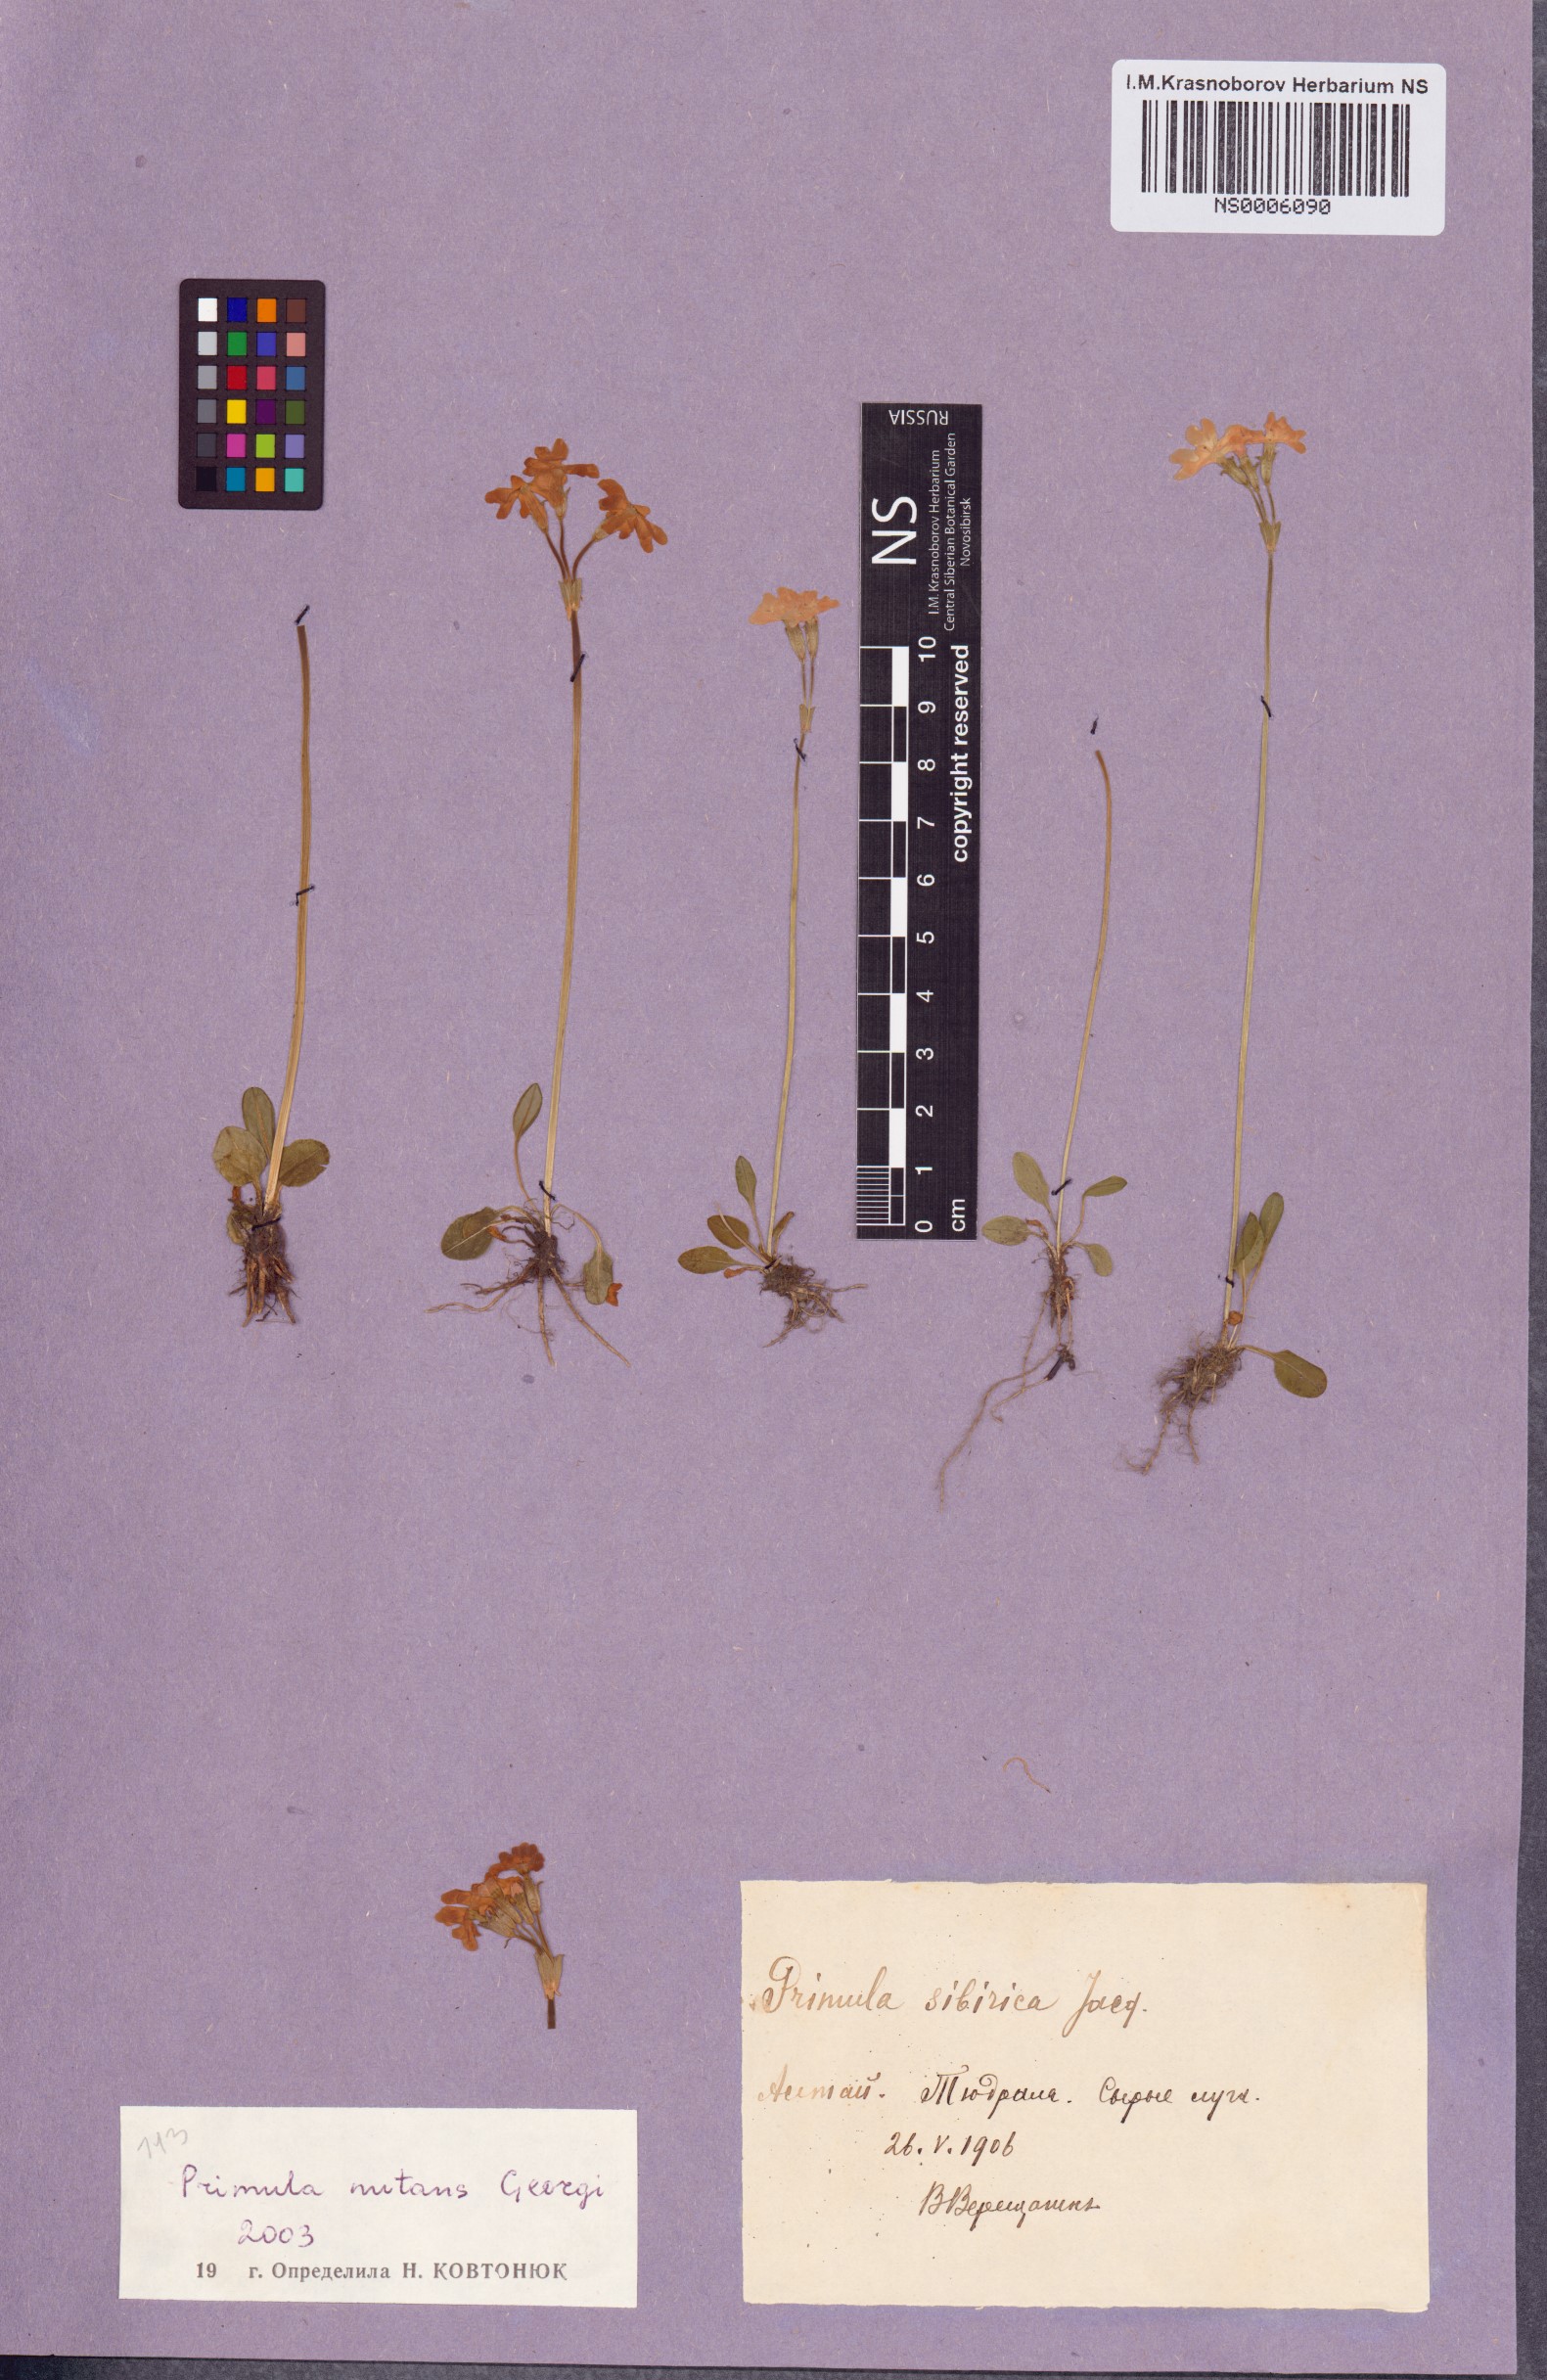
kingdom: Plantae
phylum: Tracheophyta
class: Magnoliopsida
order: Ericales
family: Primulaceae
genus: Primula
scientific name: Primula nutans
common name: Siberian primrose
